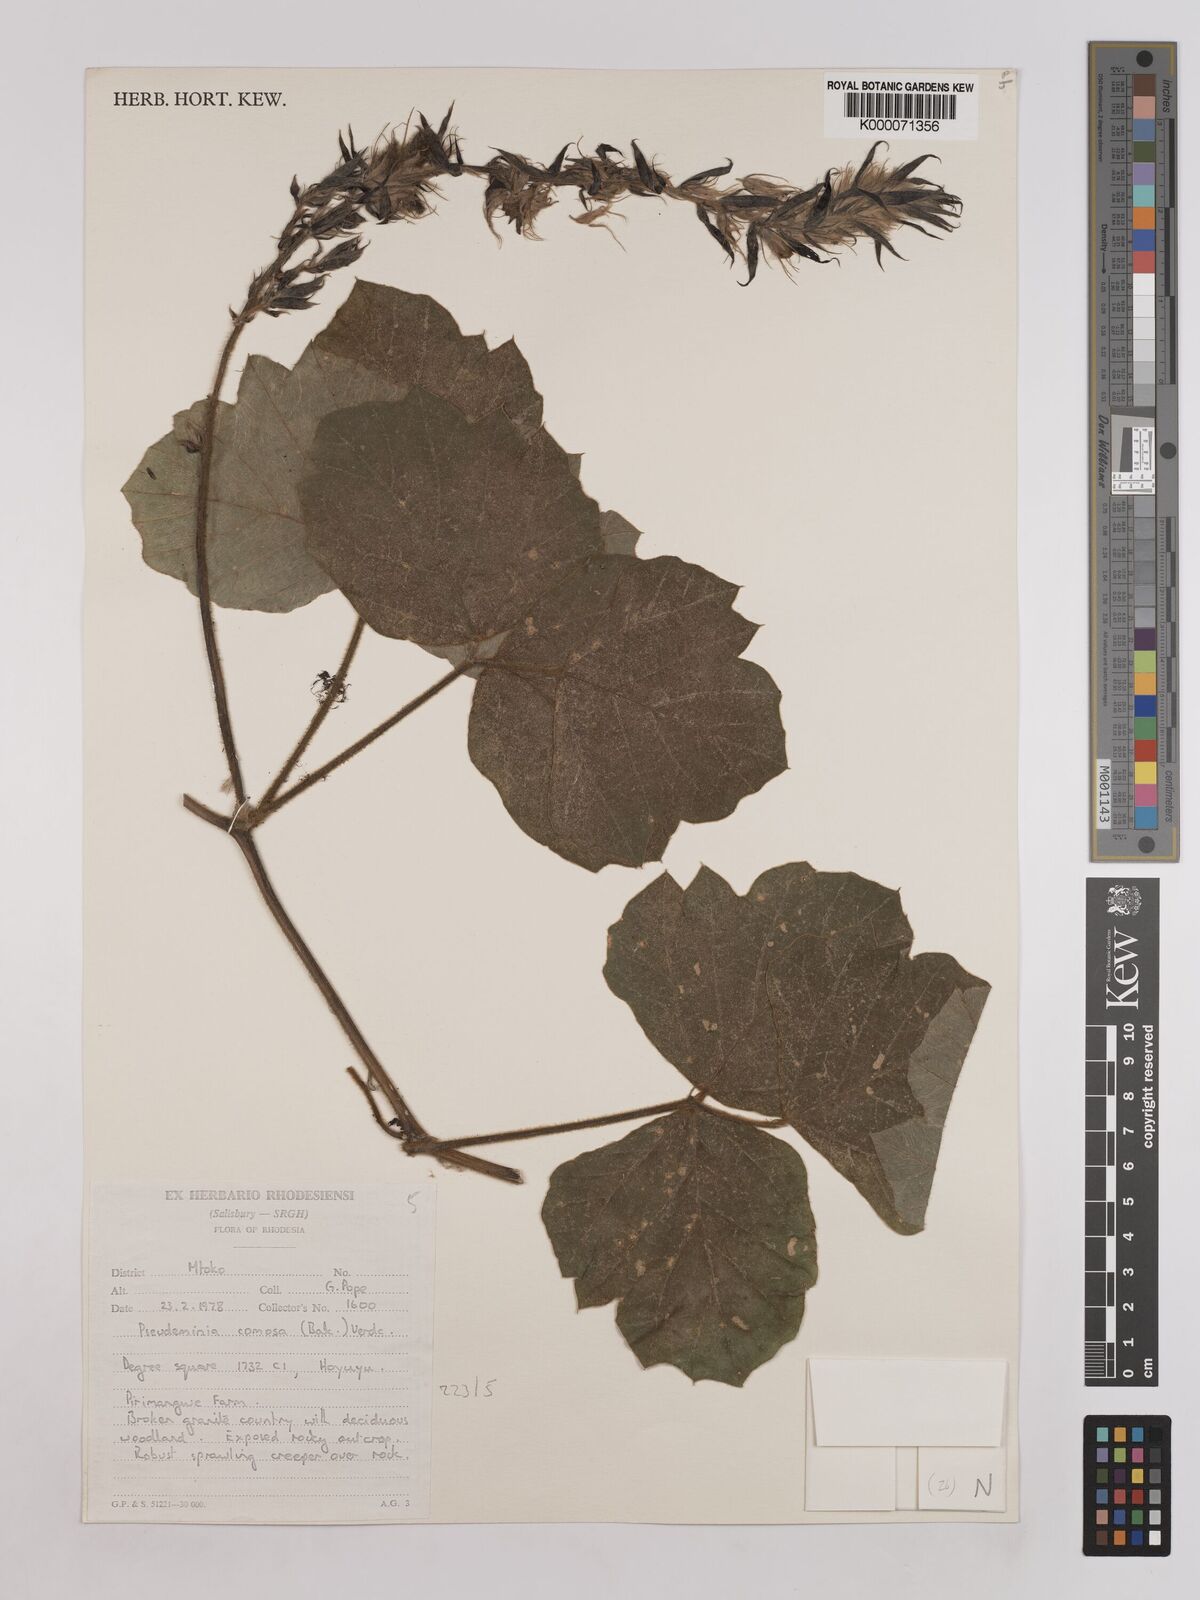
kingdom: Plantae
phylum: Tracheophyta
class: Magnoliopsida
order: Fabales
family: Fabaceae
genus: Pseudeminia
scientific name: Pseudeminia comosa
